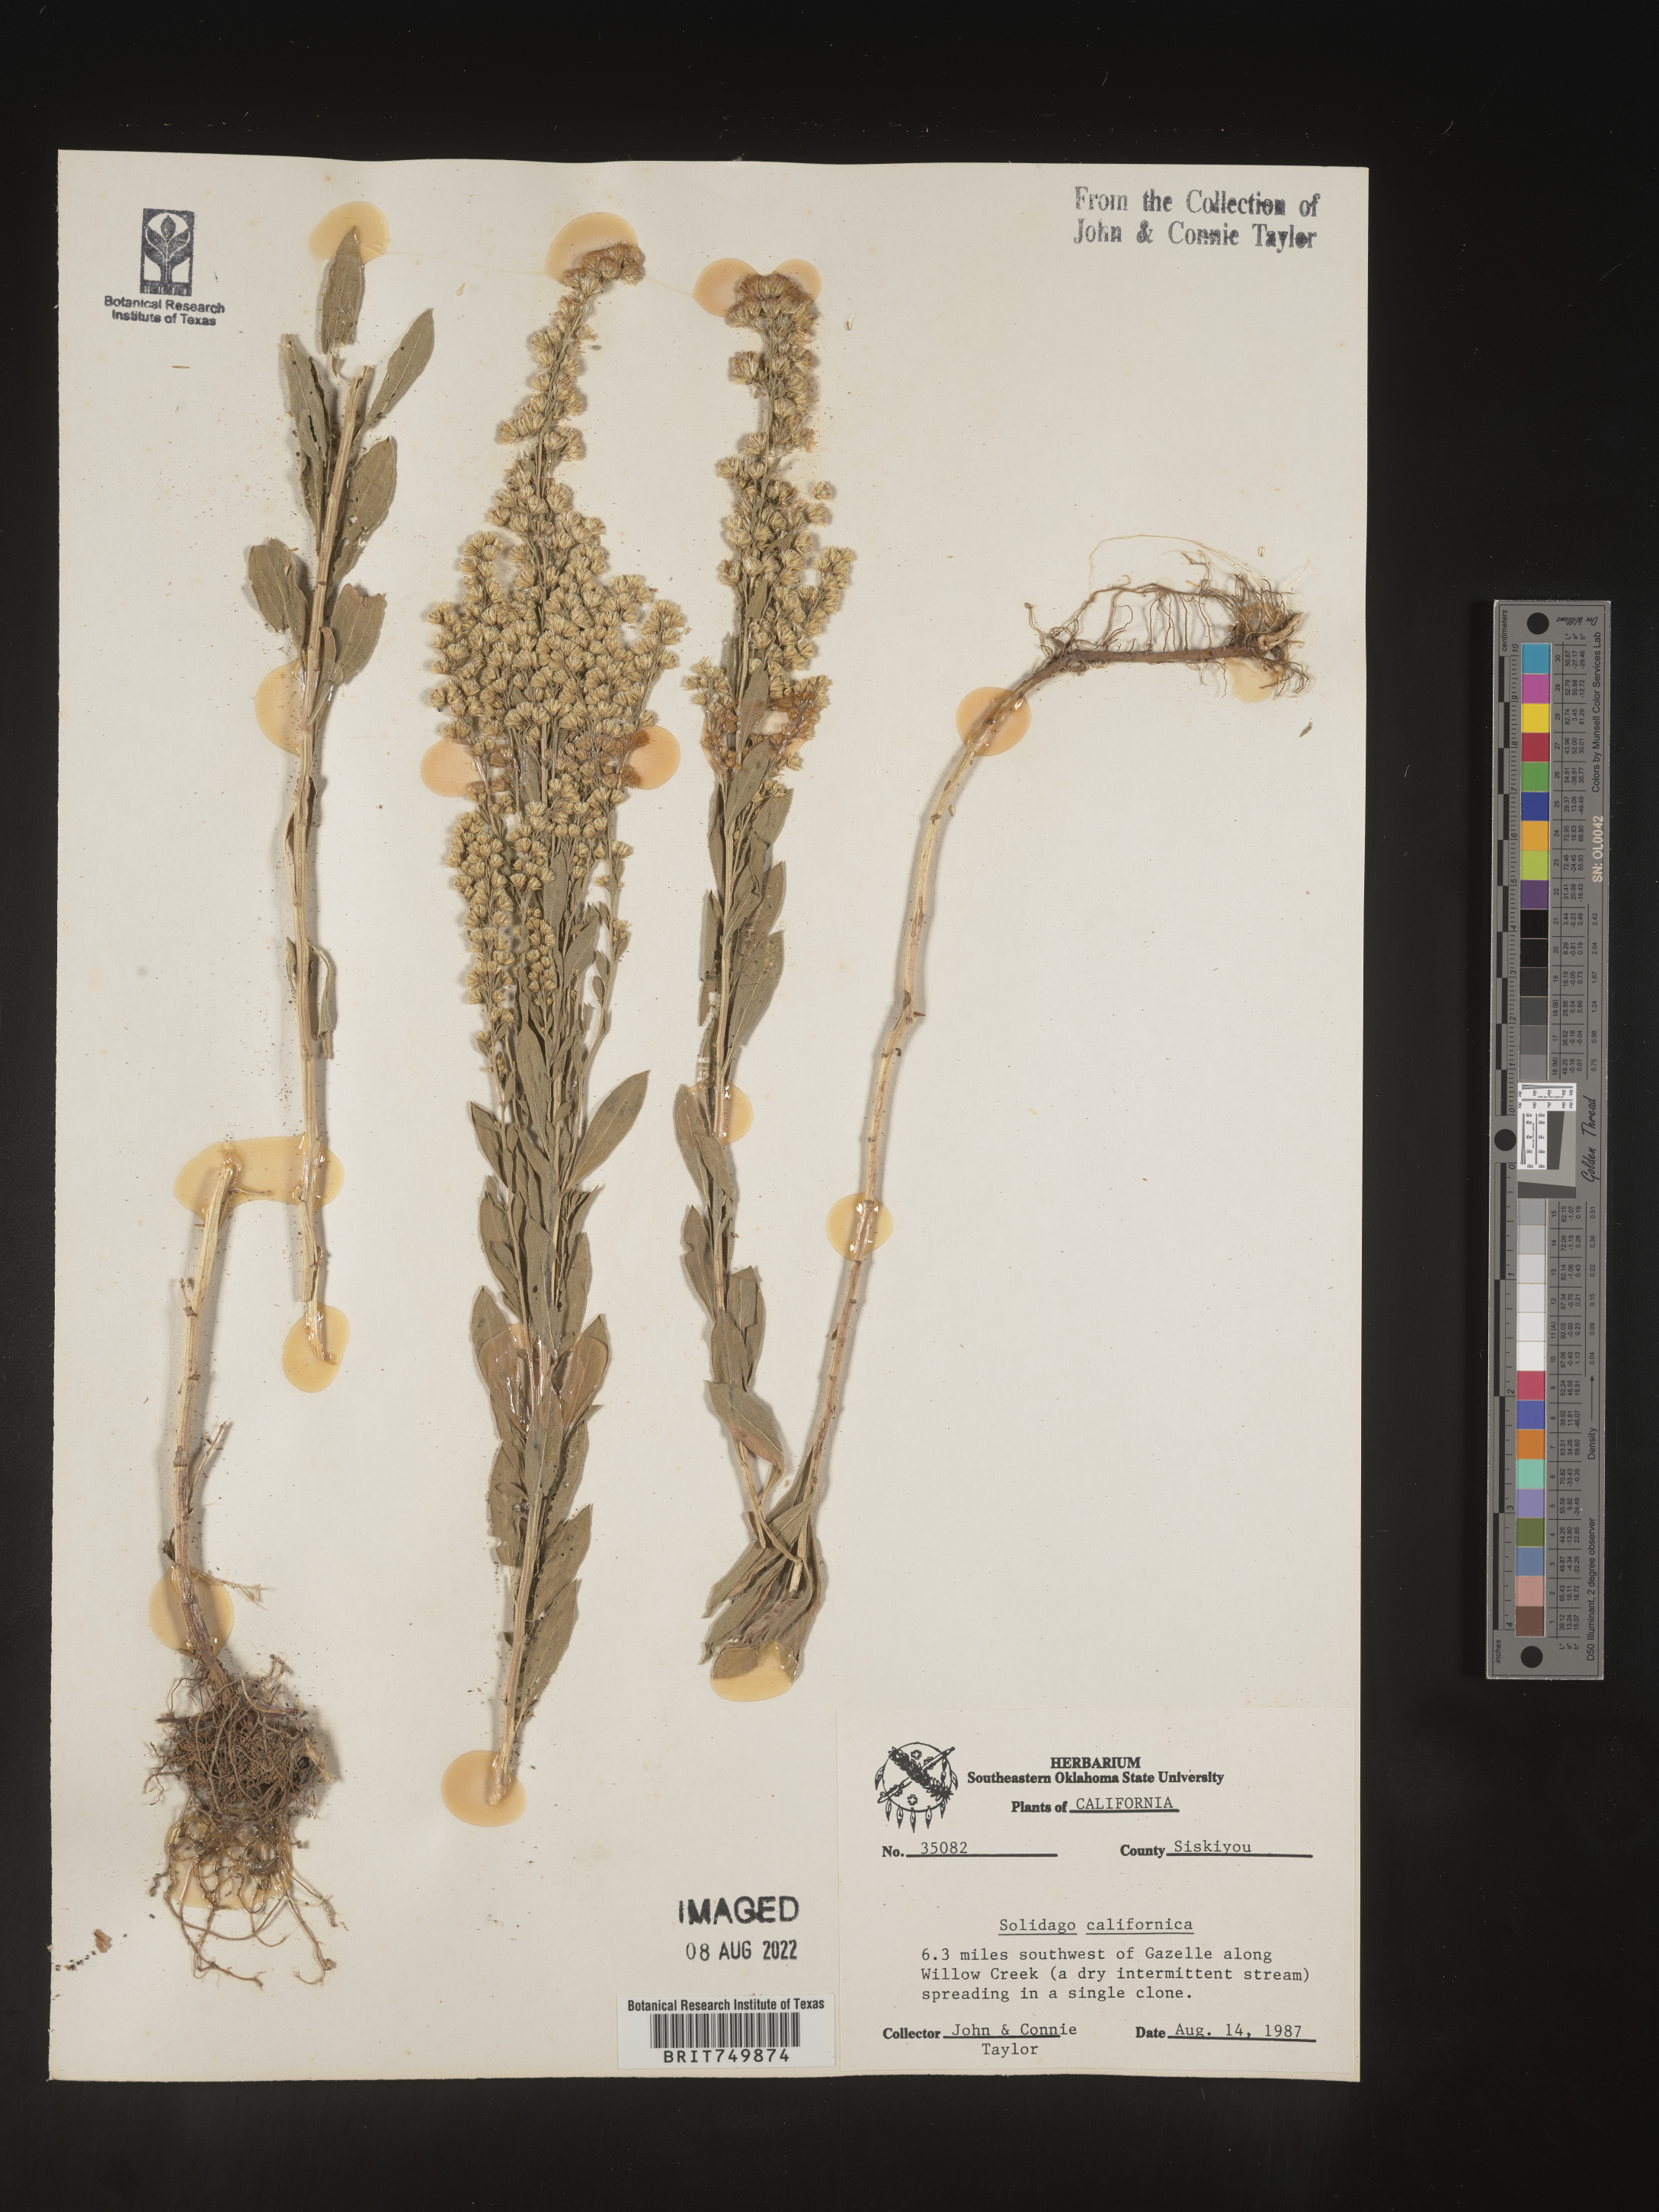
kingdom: Plantae
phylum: Tracheophyta
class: Magnoliopsida
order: Asterales
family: Asteraceae
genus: Solidago
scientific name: Solidago californica
